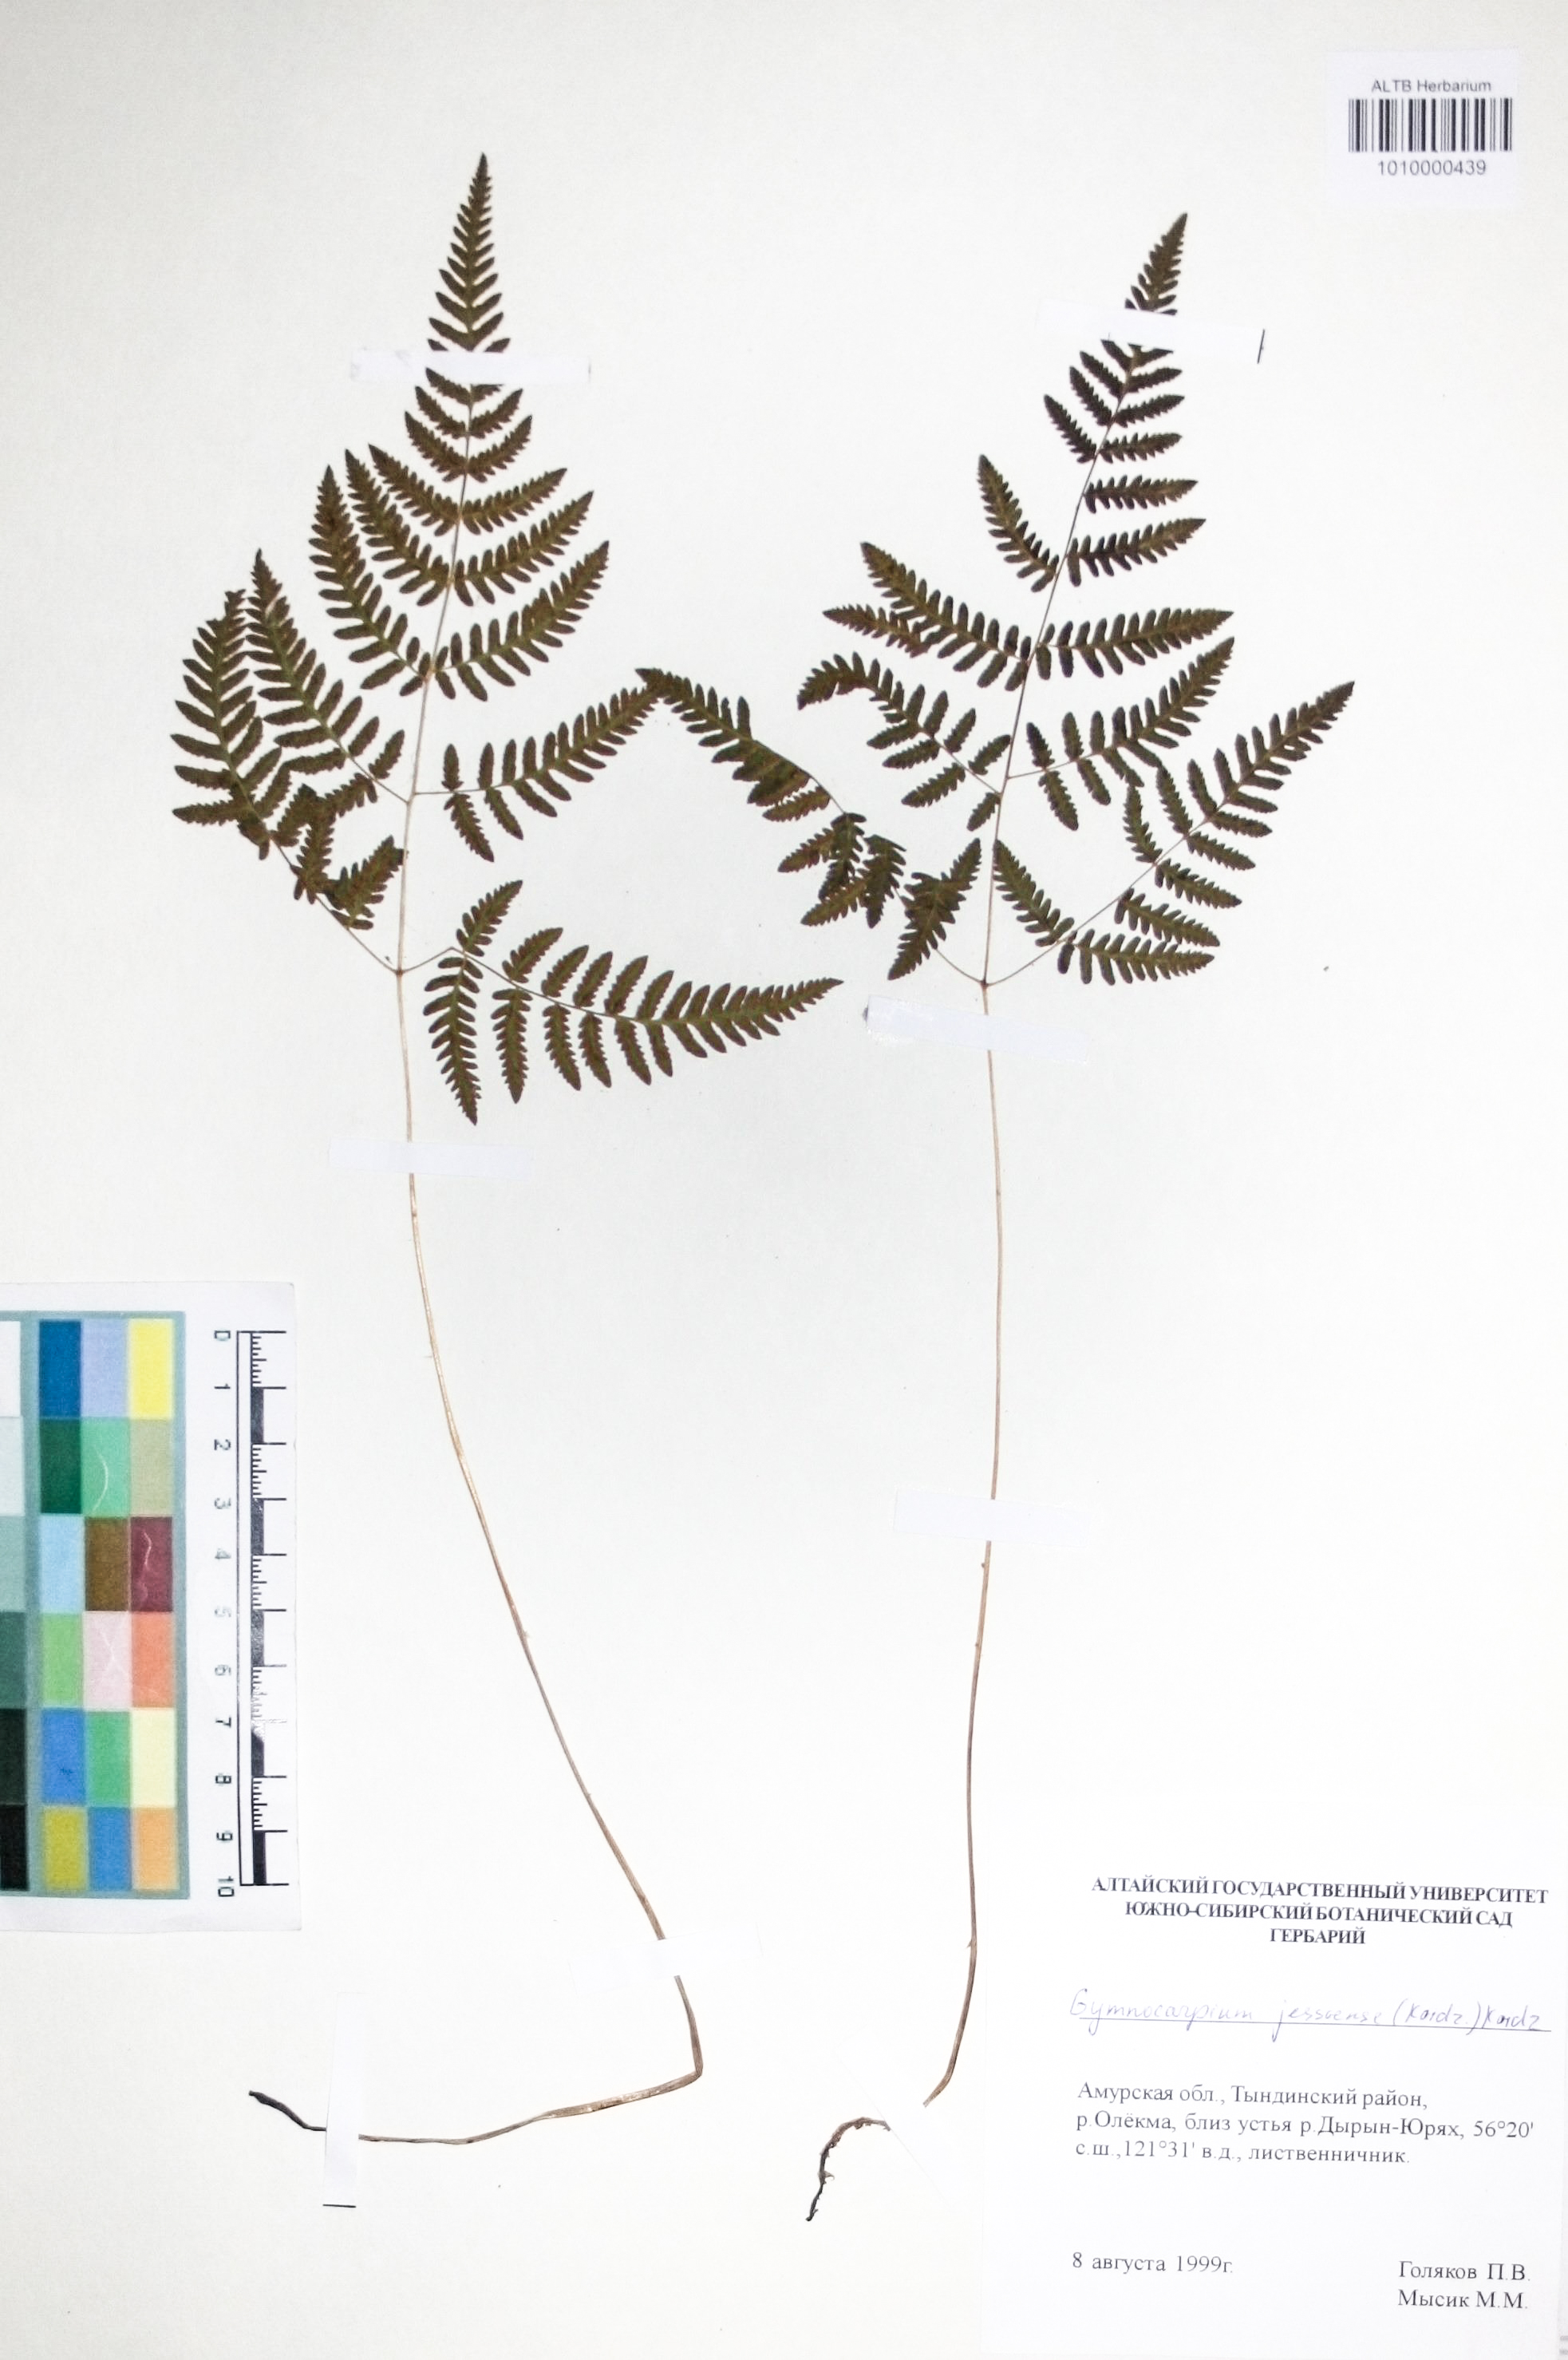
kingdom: Plantae
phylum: Tracheophyta
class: Polypodiopsida
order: Polypodiales
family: Cystopteridaceae
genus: Gymnocarpium
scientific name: Gymnocarpium jessoense
